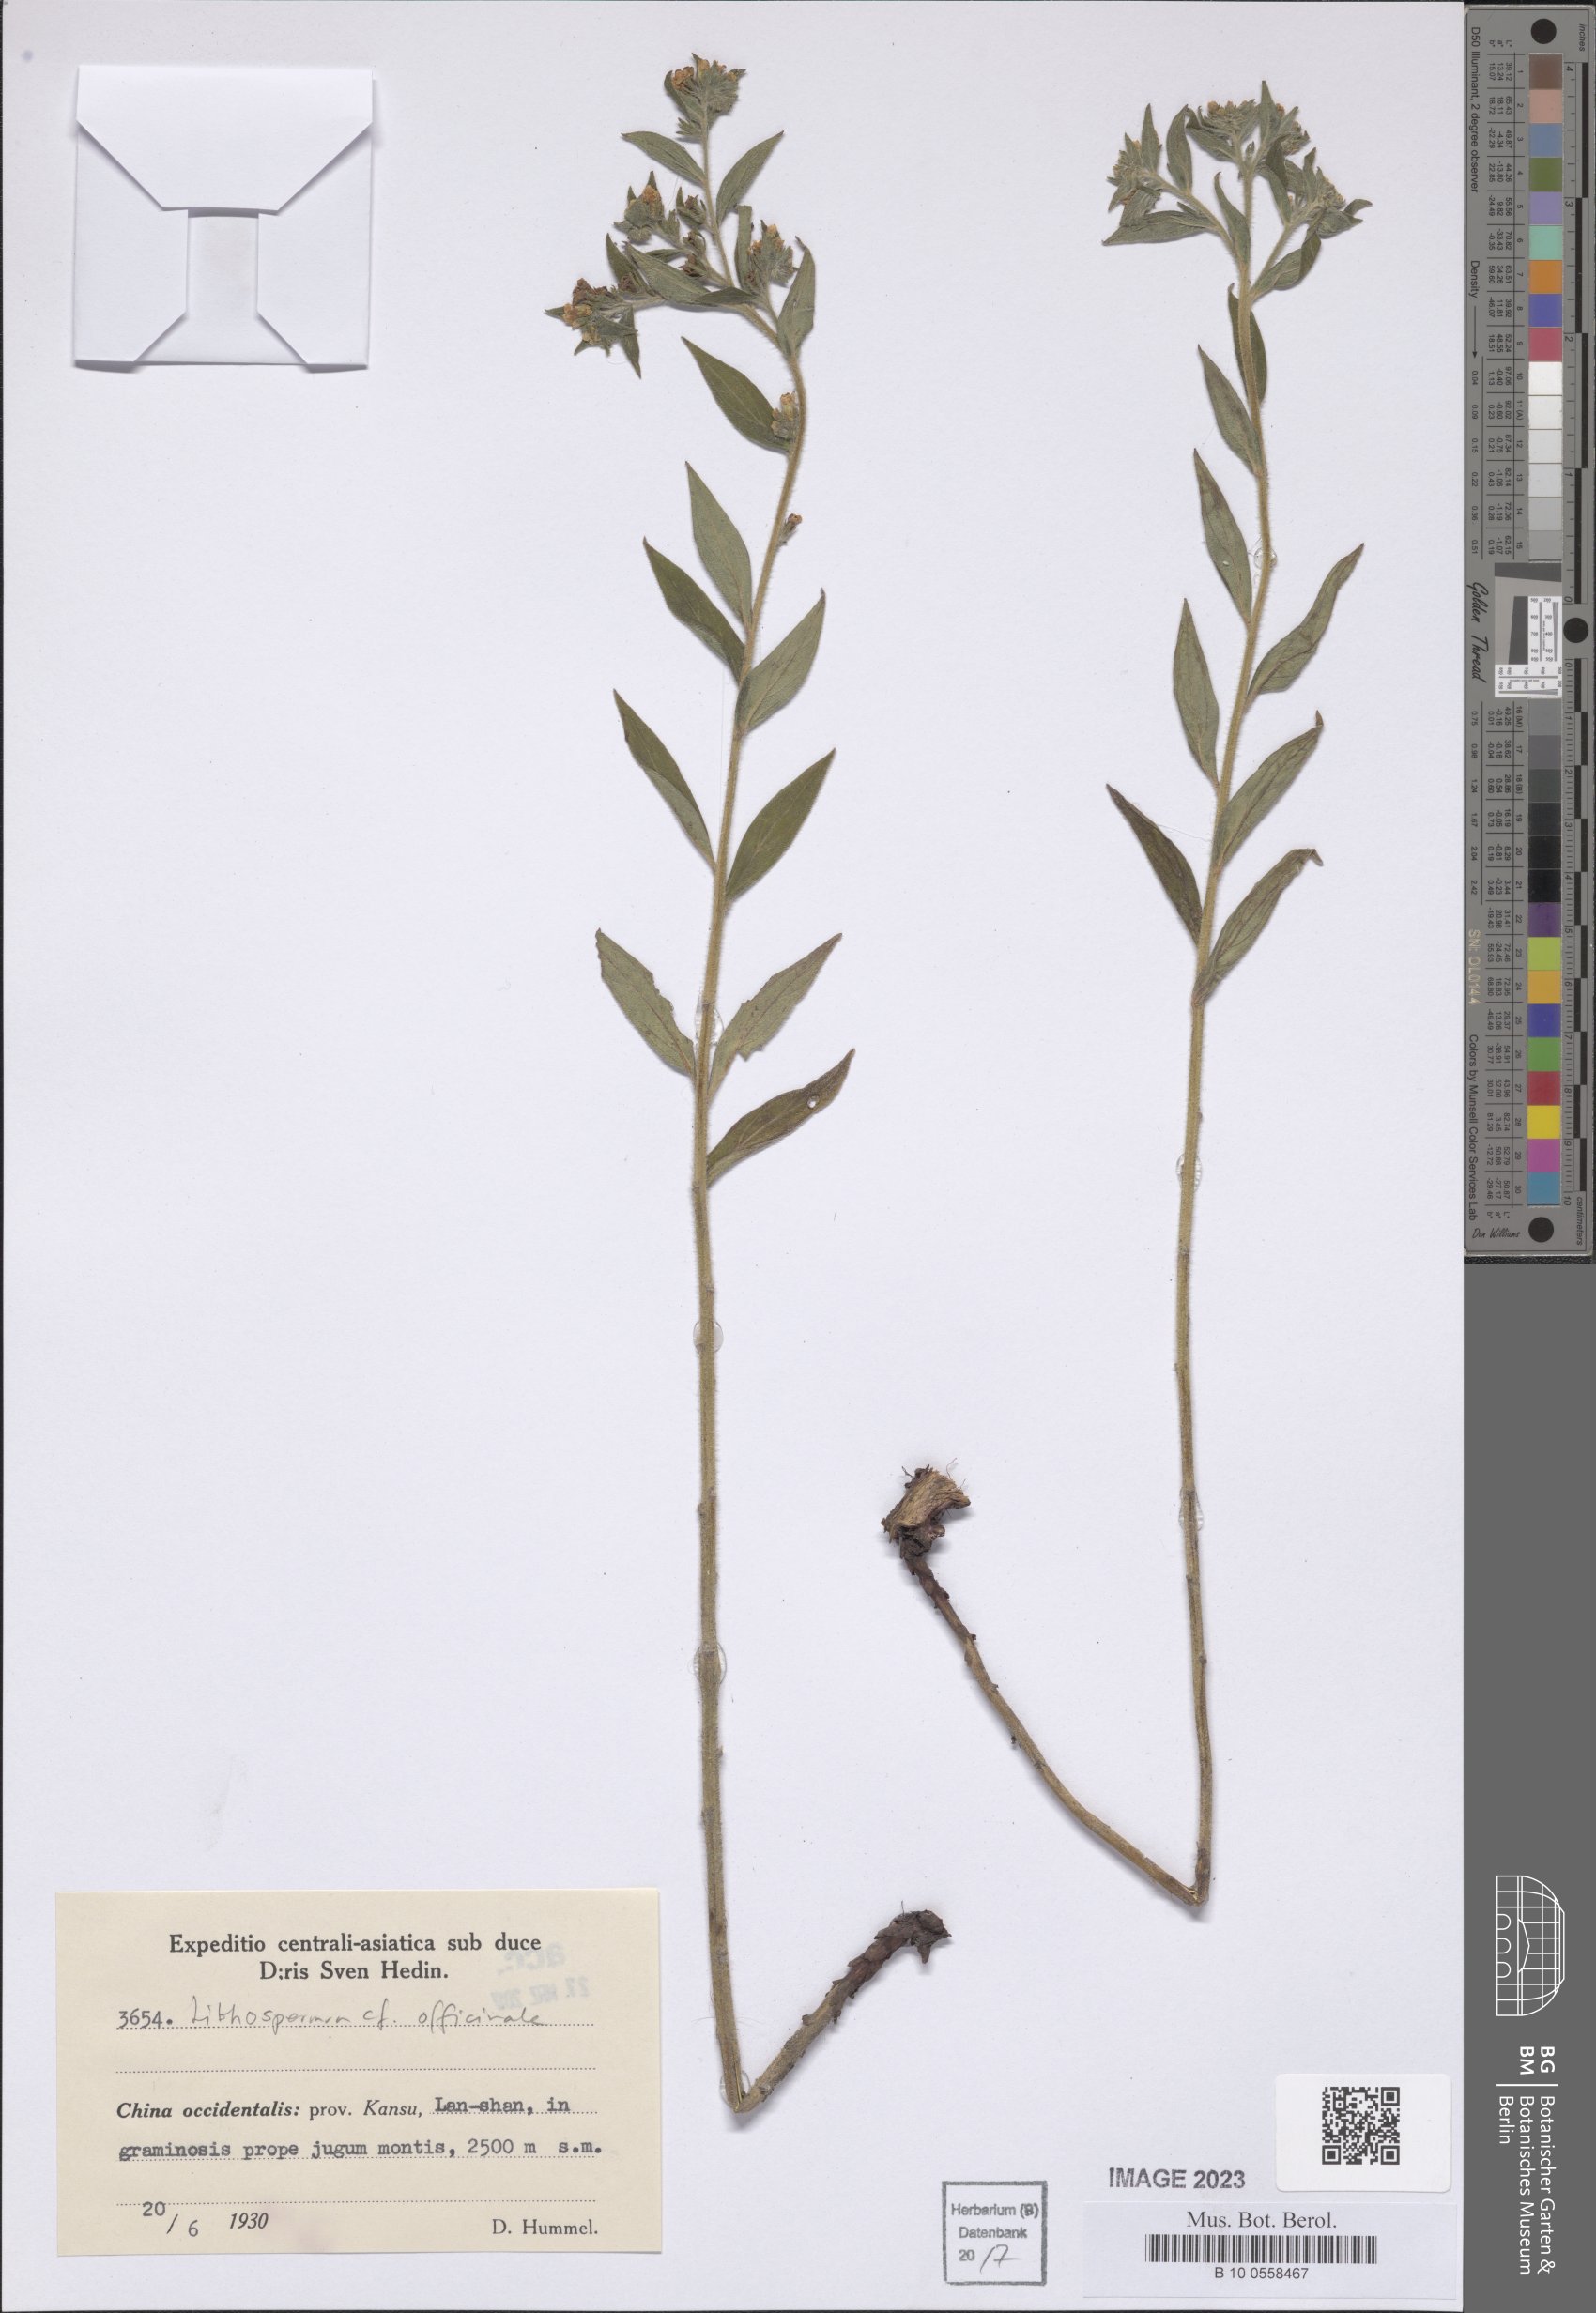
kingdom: Plantae
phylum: Tracheophyta
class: Magnoliopsida
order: Boraginales
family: Boraginaceae
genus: Lithospermum
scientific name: Lithospermum officinale
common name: Common gromwell
